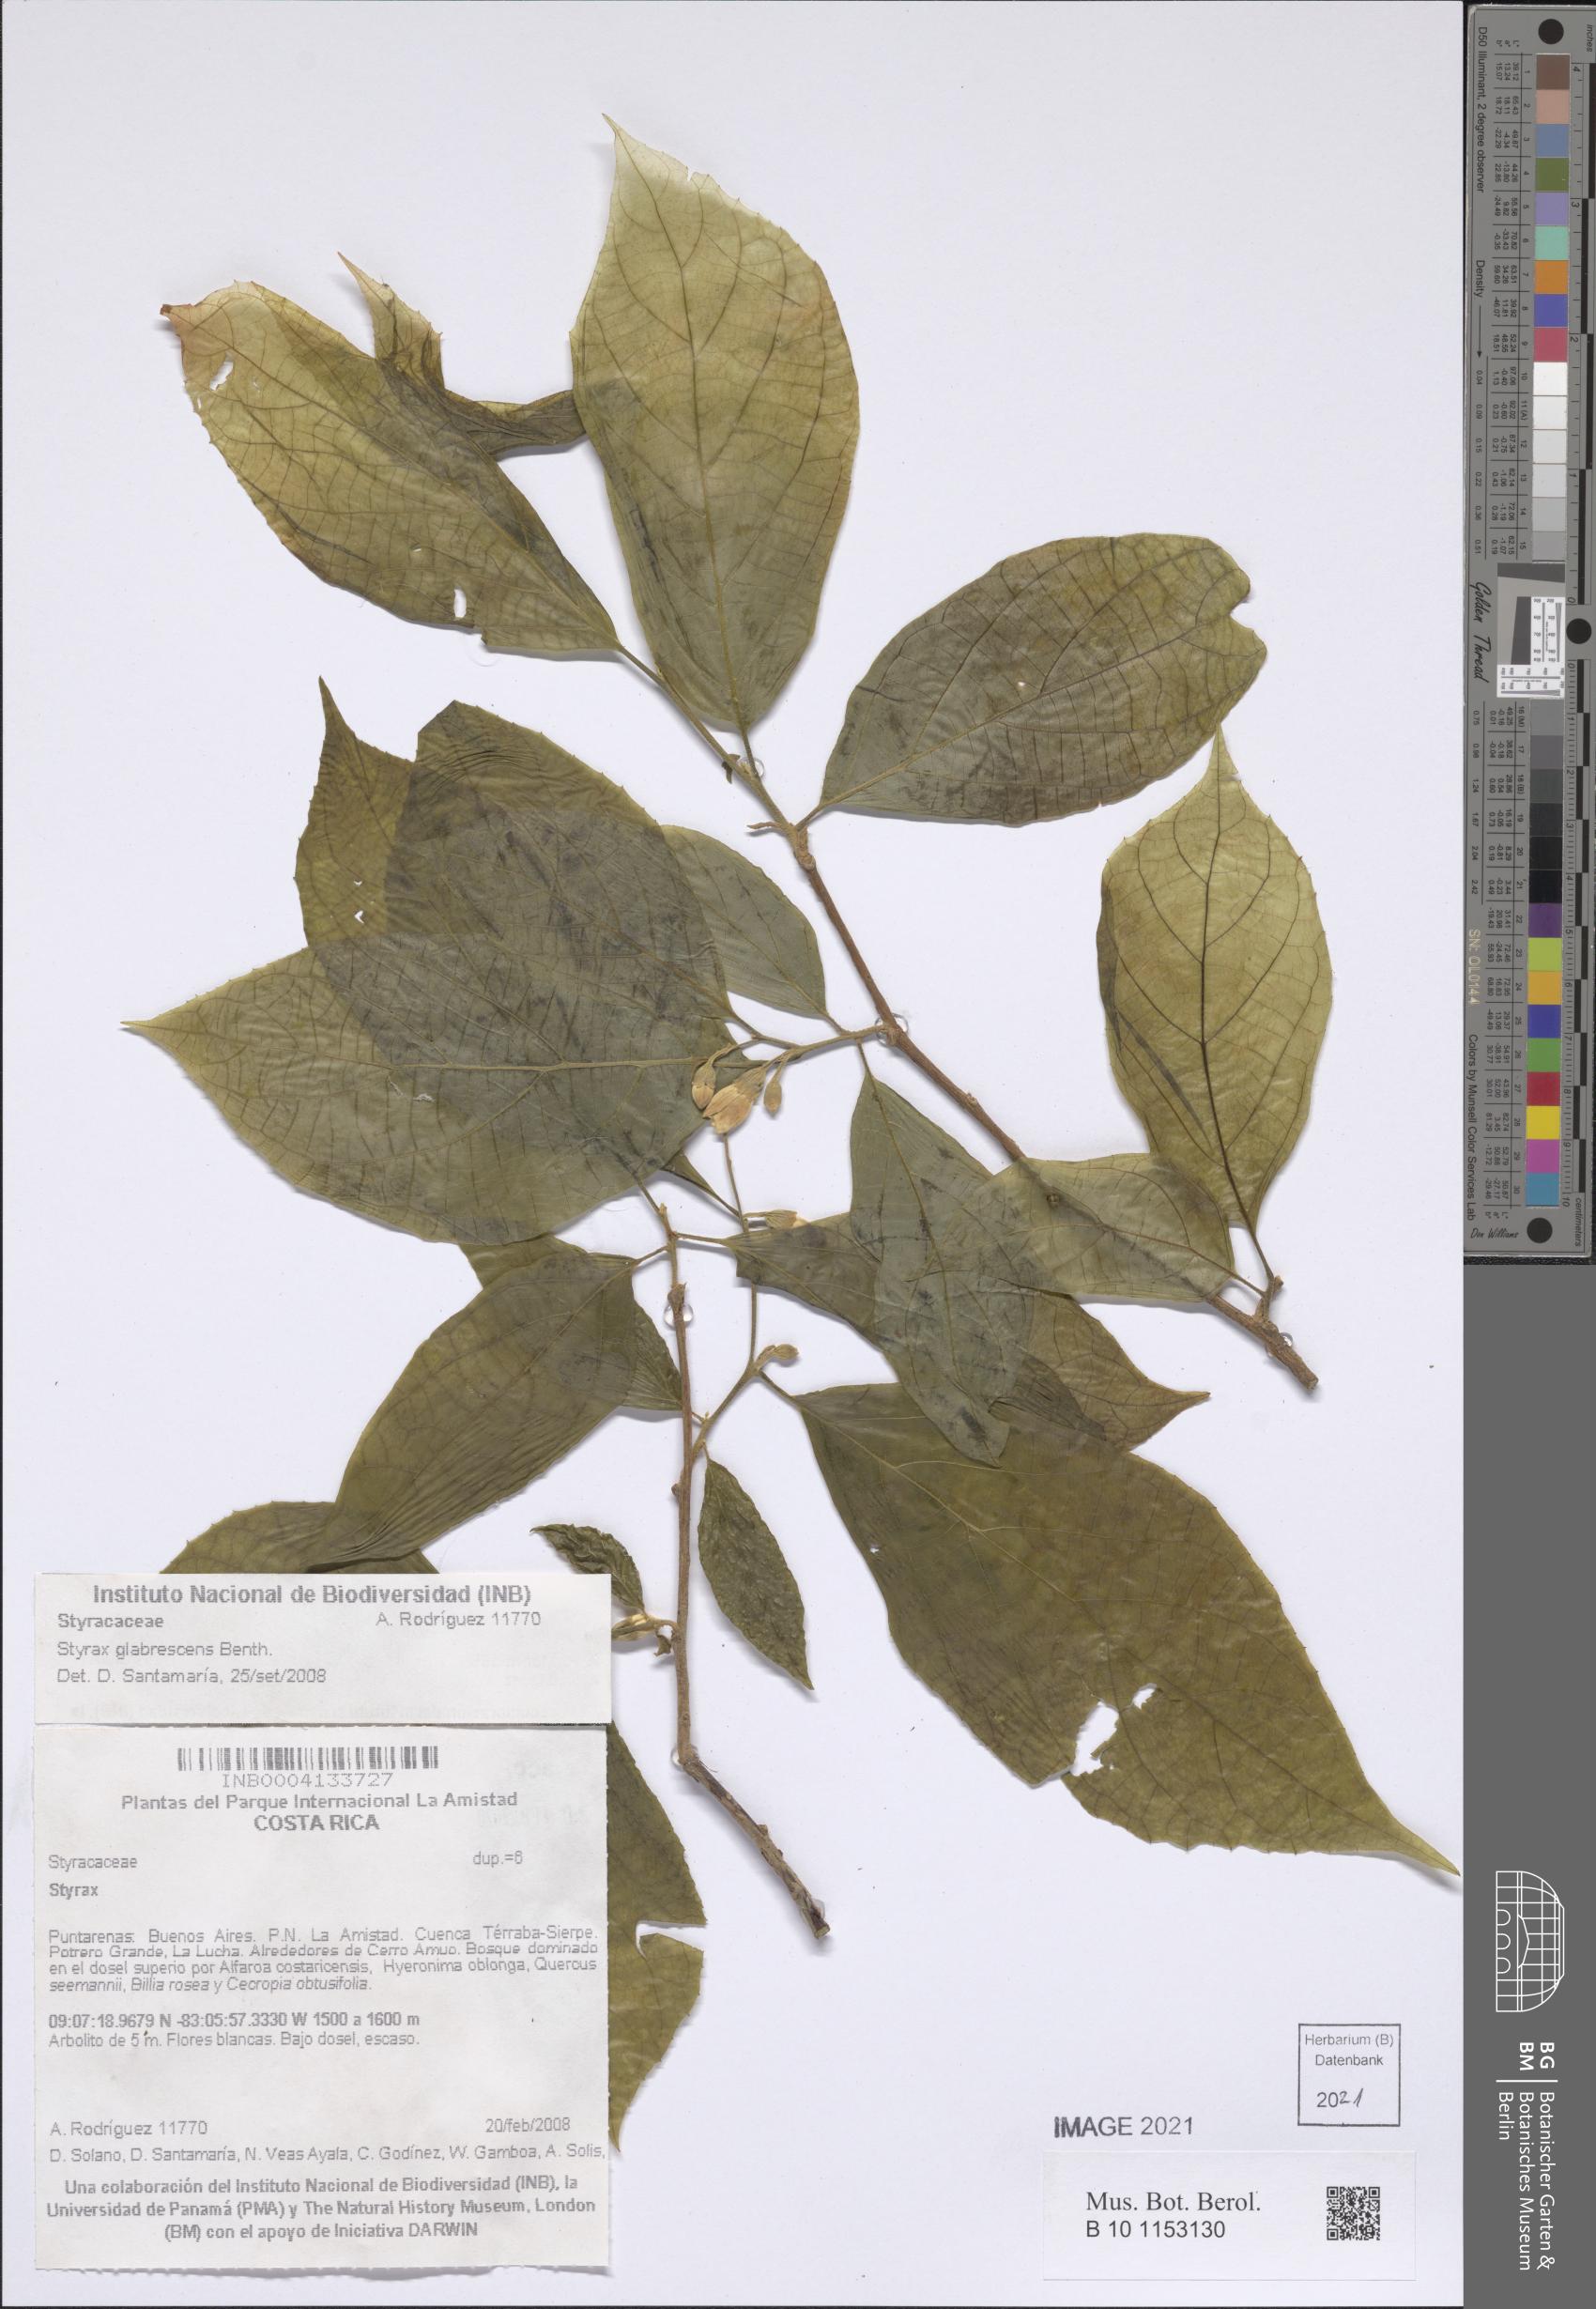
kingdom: Plantae
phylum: Tracheophyta
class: Magnoliopsida
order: Ericales
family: Styracaceae
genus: Styrax
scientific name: Styrax glabrescens
